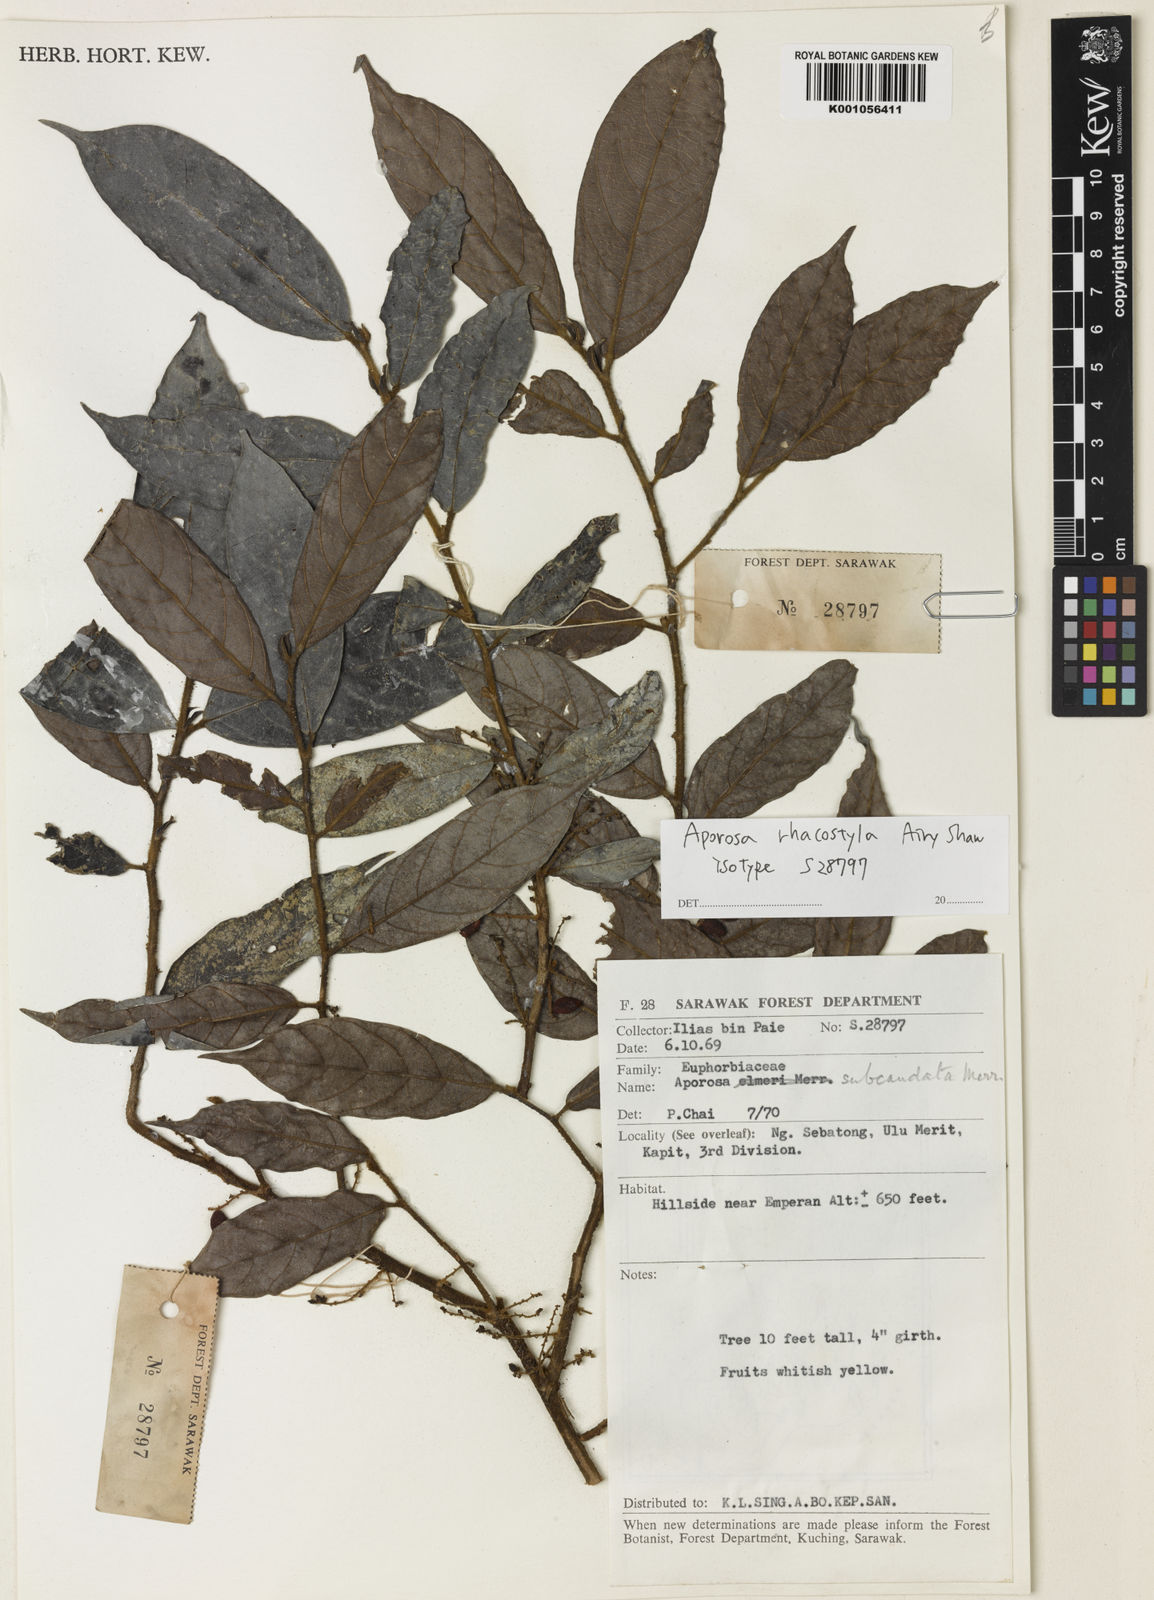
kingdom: Plantae
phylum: Tracheophyta
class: Magnoliopsida
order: Malpighiales
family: Phyllanthaceae
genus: Aporosa
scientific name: Aporosa rhacostyla
